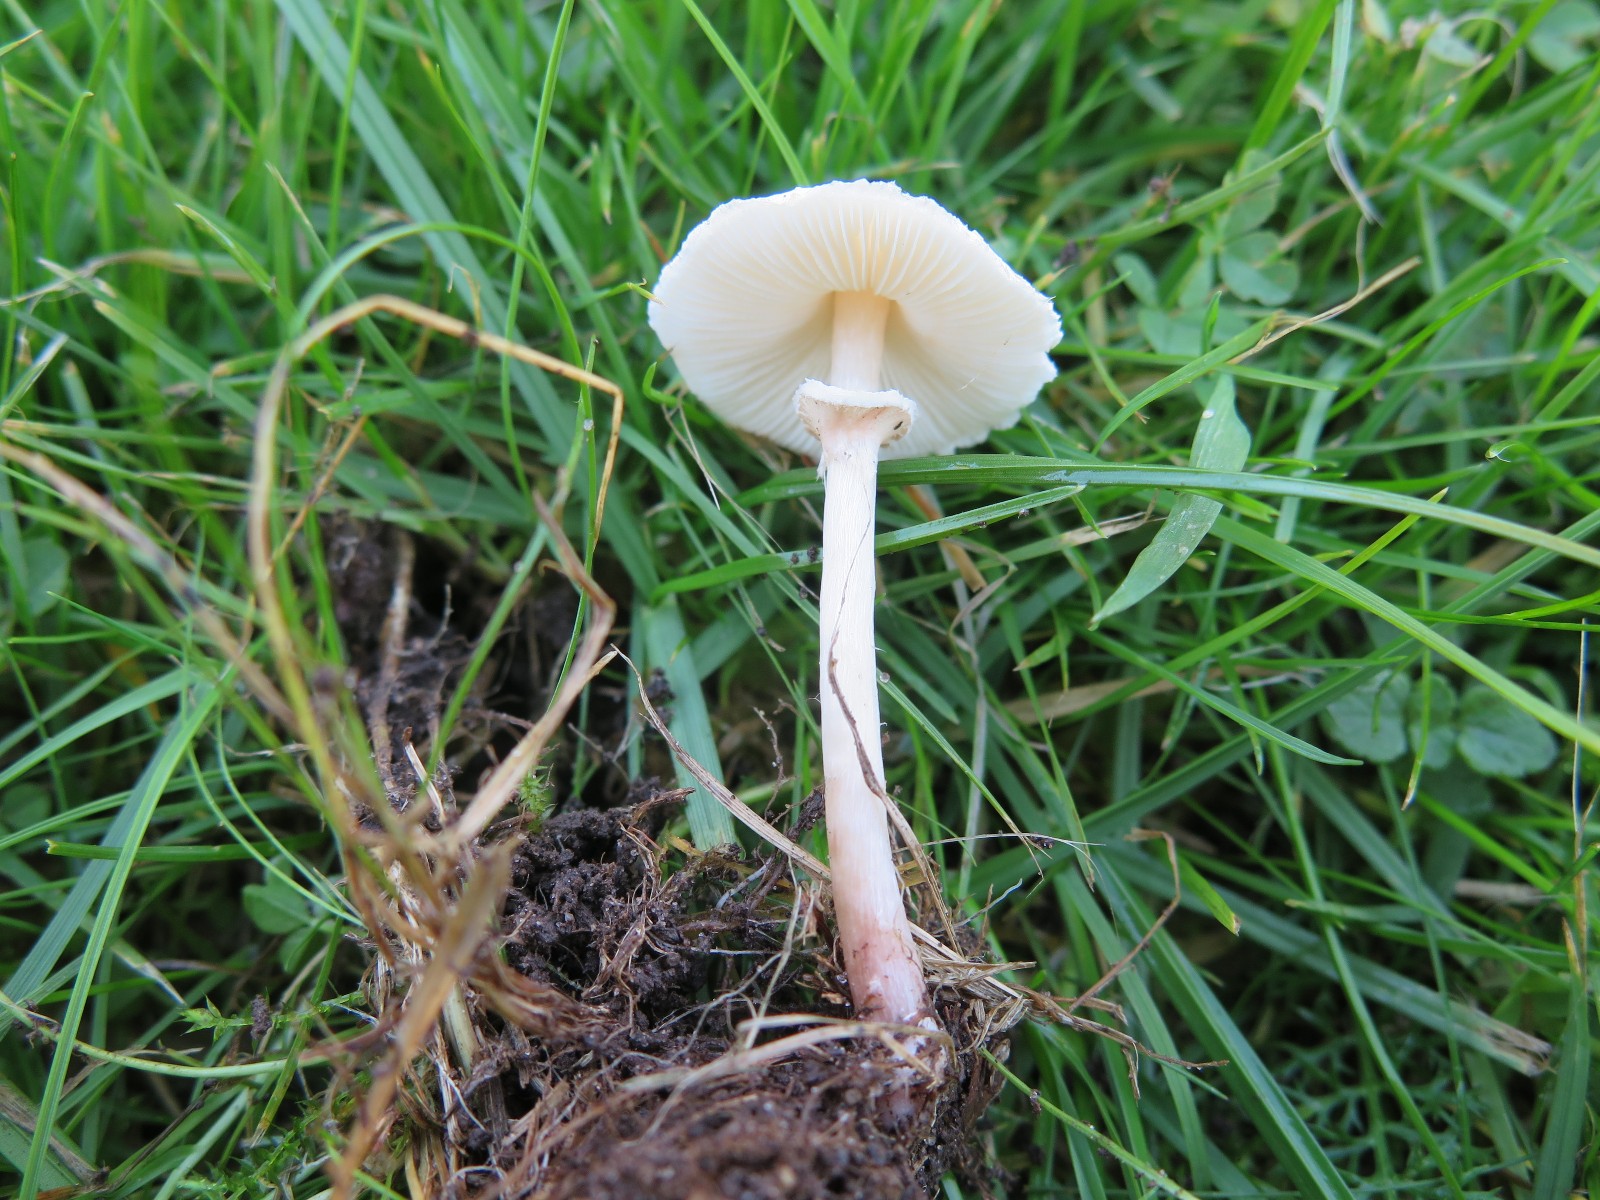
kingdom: Fungi
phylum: Basidiomycota
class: Agaricomycetes
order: Agaricales
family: Agaricaceae
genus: Lepiota
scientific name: Lepiota erminea
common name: hvid parasolhat
